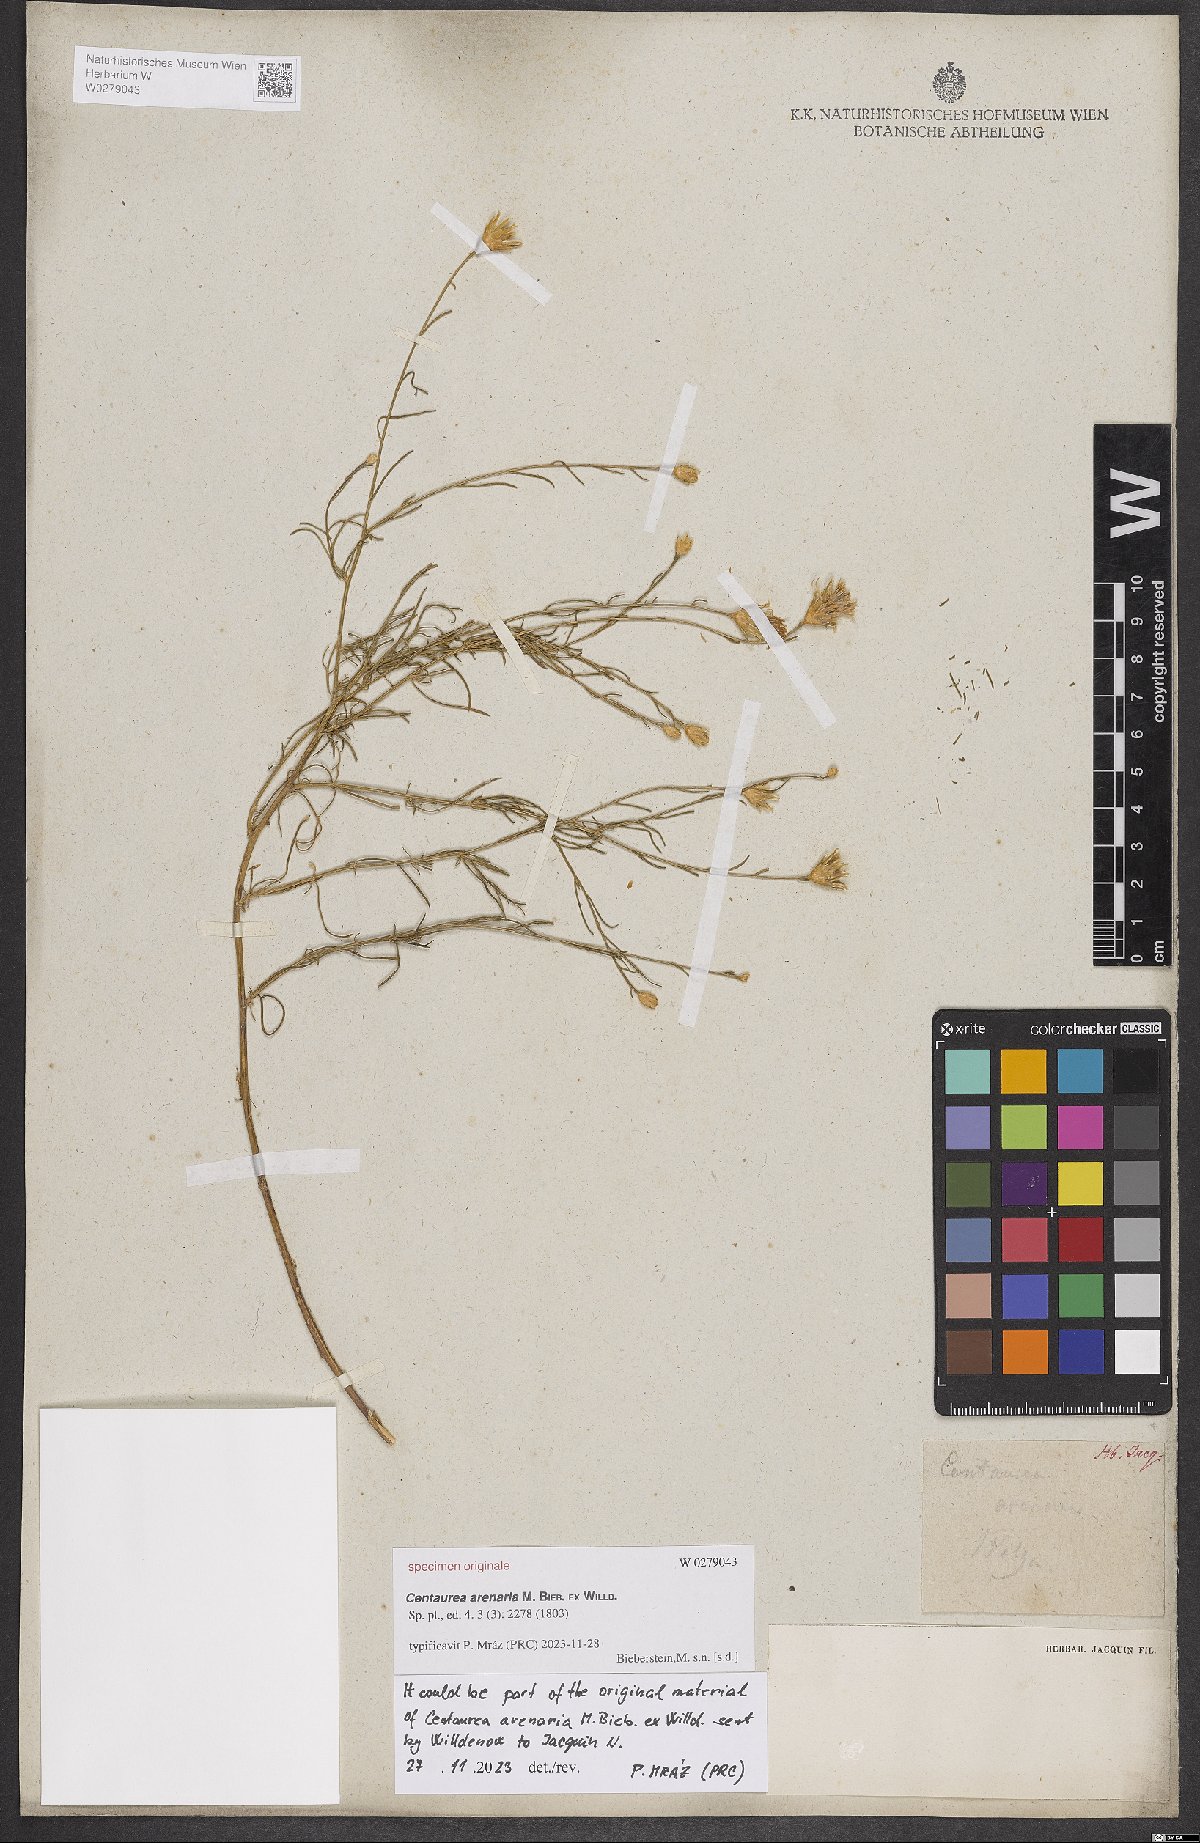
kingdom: Plantae
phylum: Tracheophyta
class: Magnoliopsida
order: Asterales
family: Asteraceae
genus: Centaurea
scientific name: Centaurea arenaria
